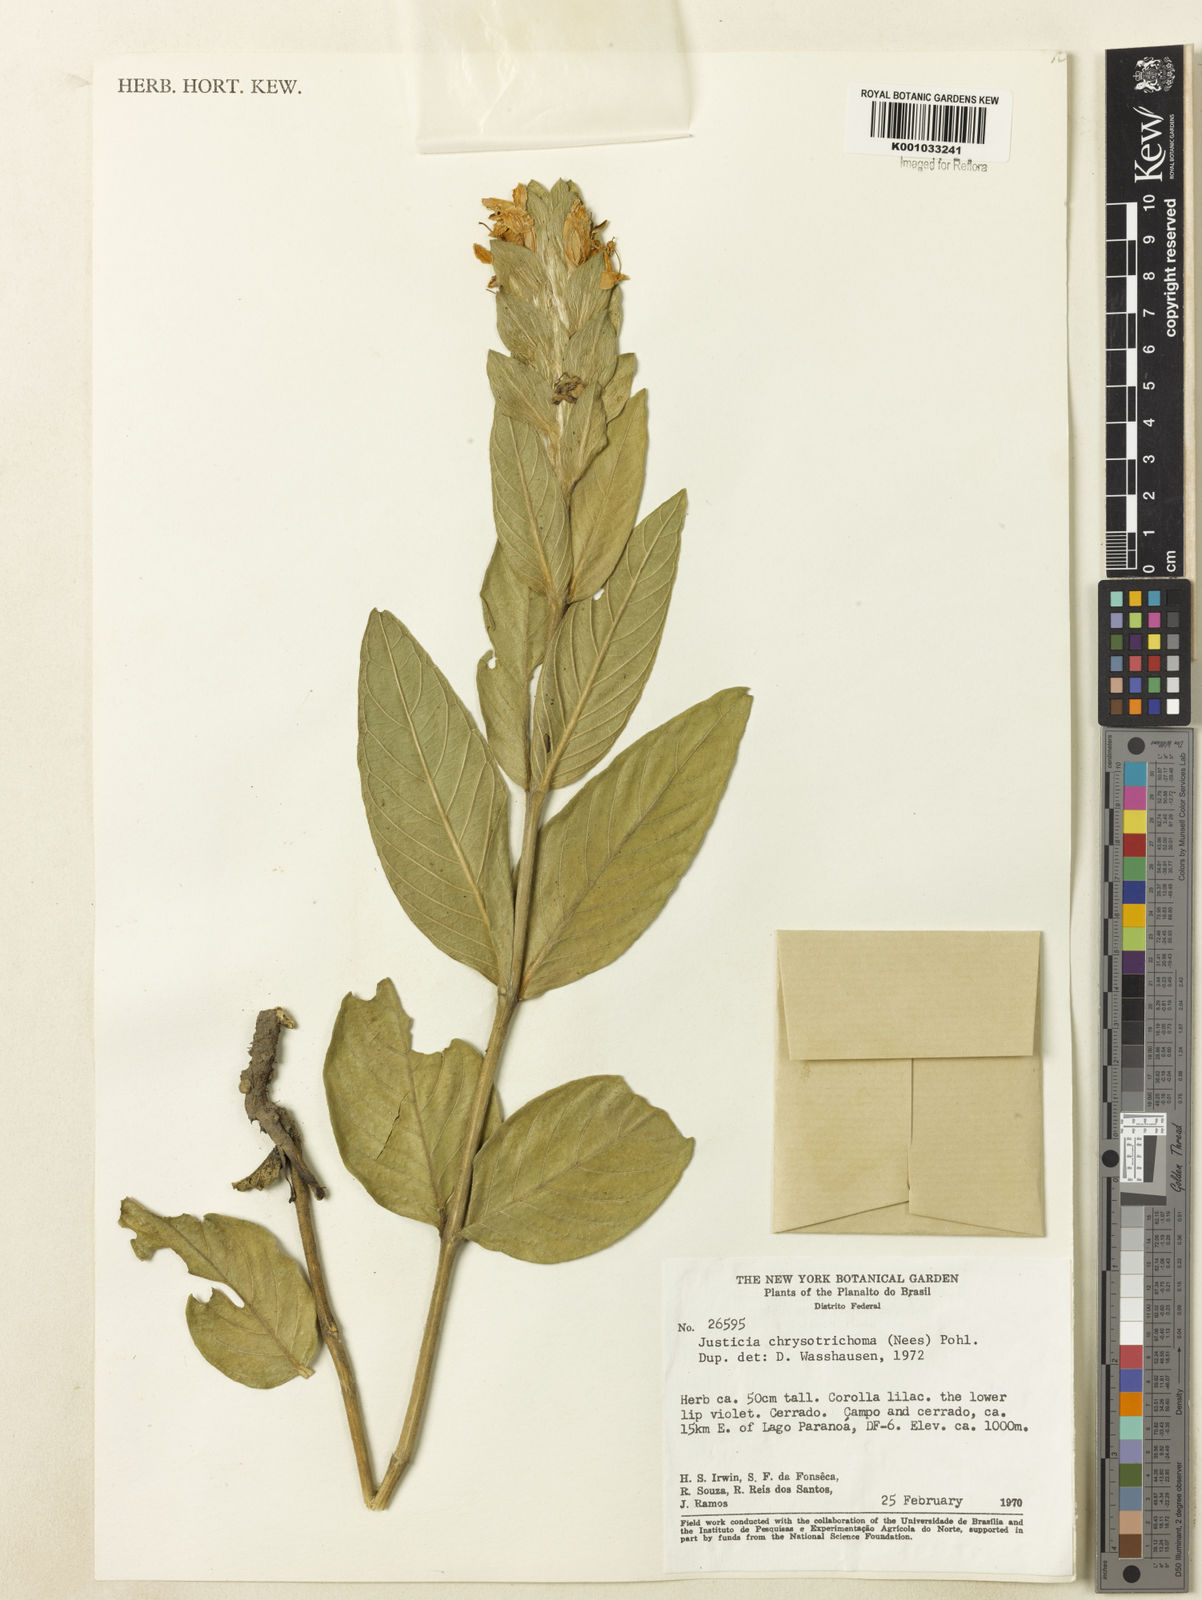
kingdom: Plantae
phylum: Tracheophyta
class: Magnoliopsida
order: Lamiales
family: Acanthaceae
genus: Justicia
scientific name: Justicia chrysotrichoma
